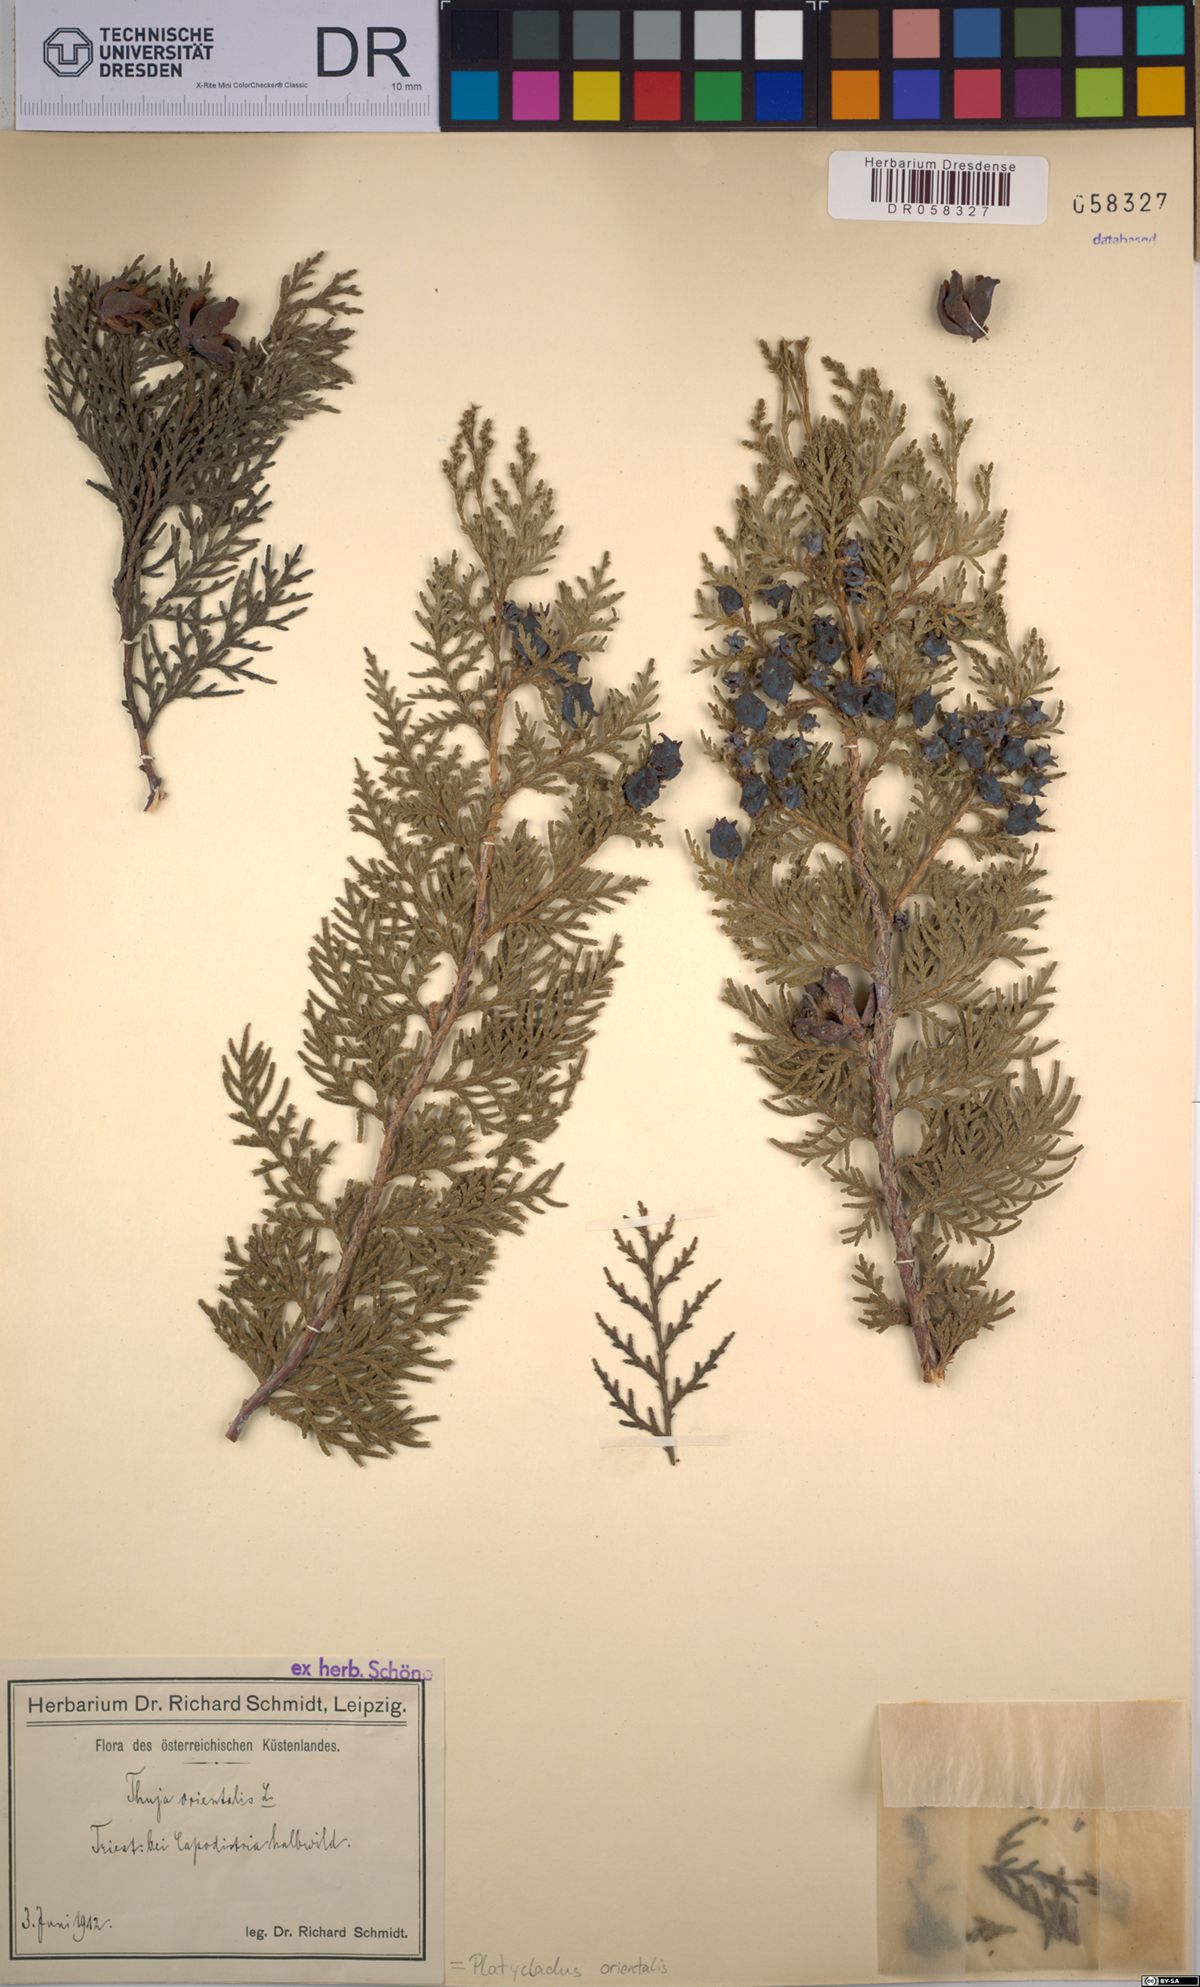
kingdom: Plantae
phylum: Tracheophyta
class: Pinopsida
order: Pinales
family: Cupressaceae
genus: Platycladus
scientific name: Platycladus orientalis
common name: Chinese thuja
